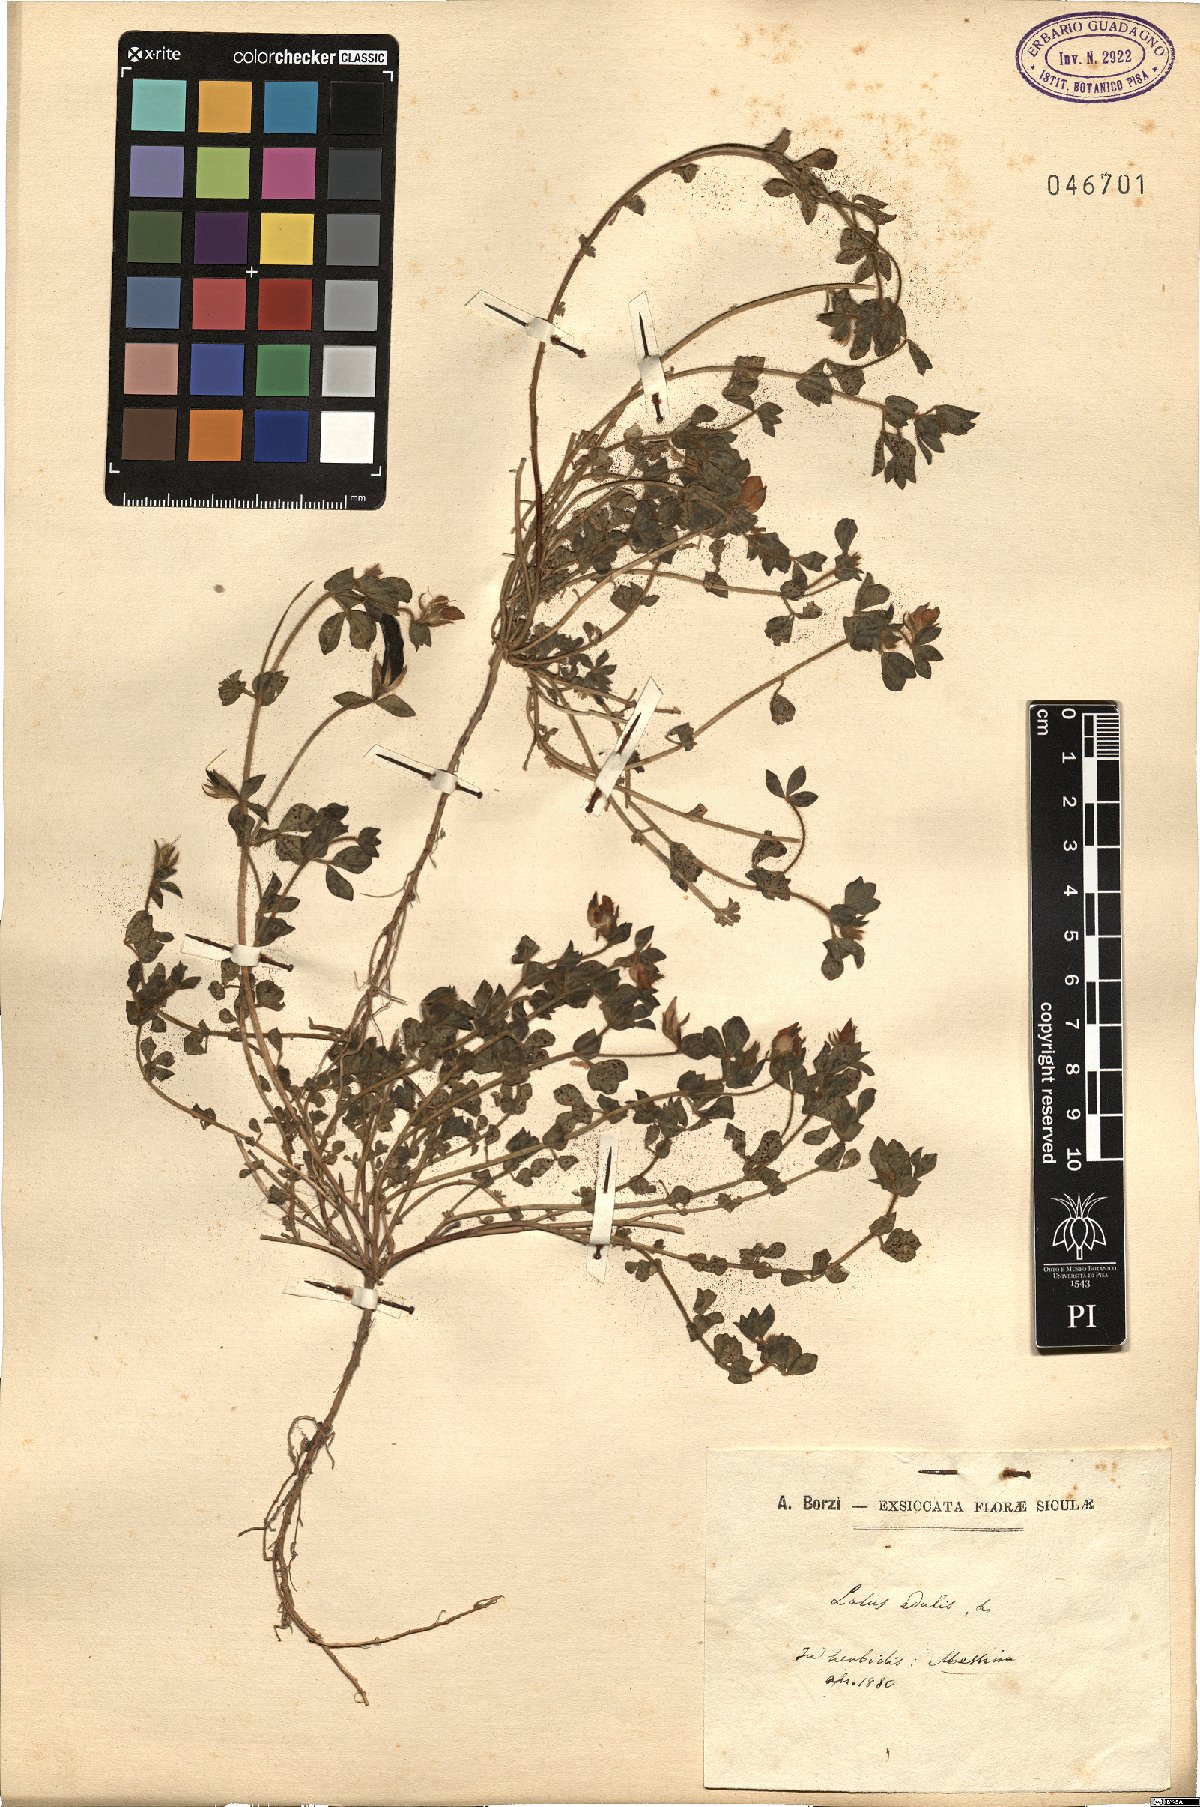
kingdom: Plantae
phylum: Tracheophyta
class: Magnoliopsida
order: Fabales
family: Fabaceae
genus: Lotus
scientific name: Lotus edulis
